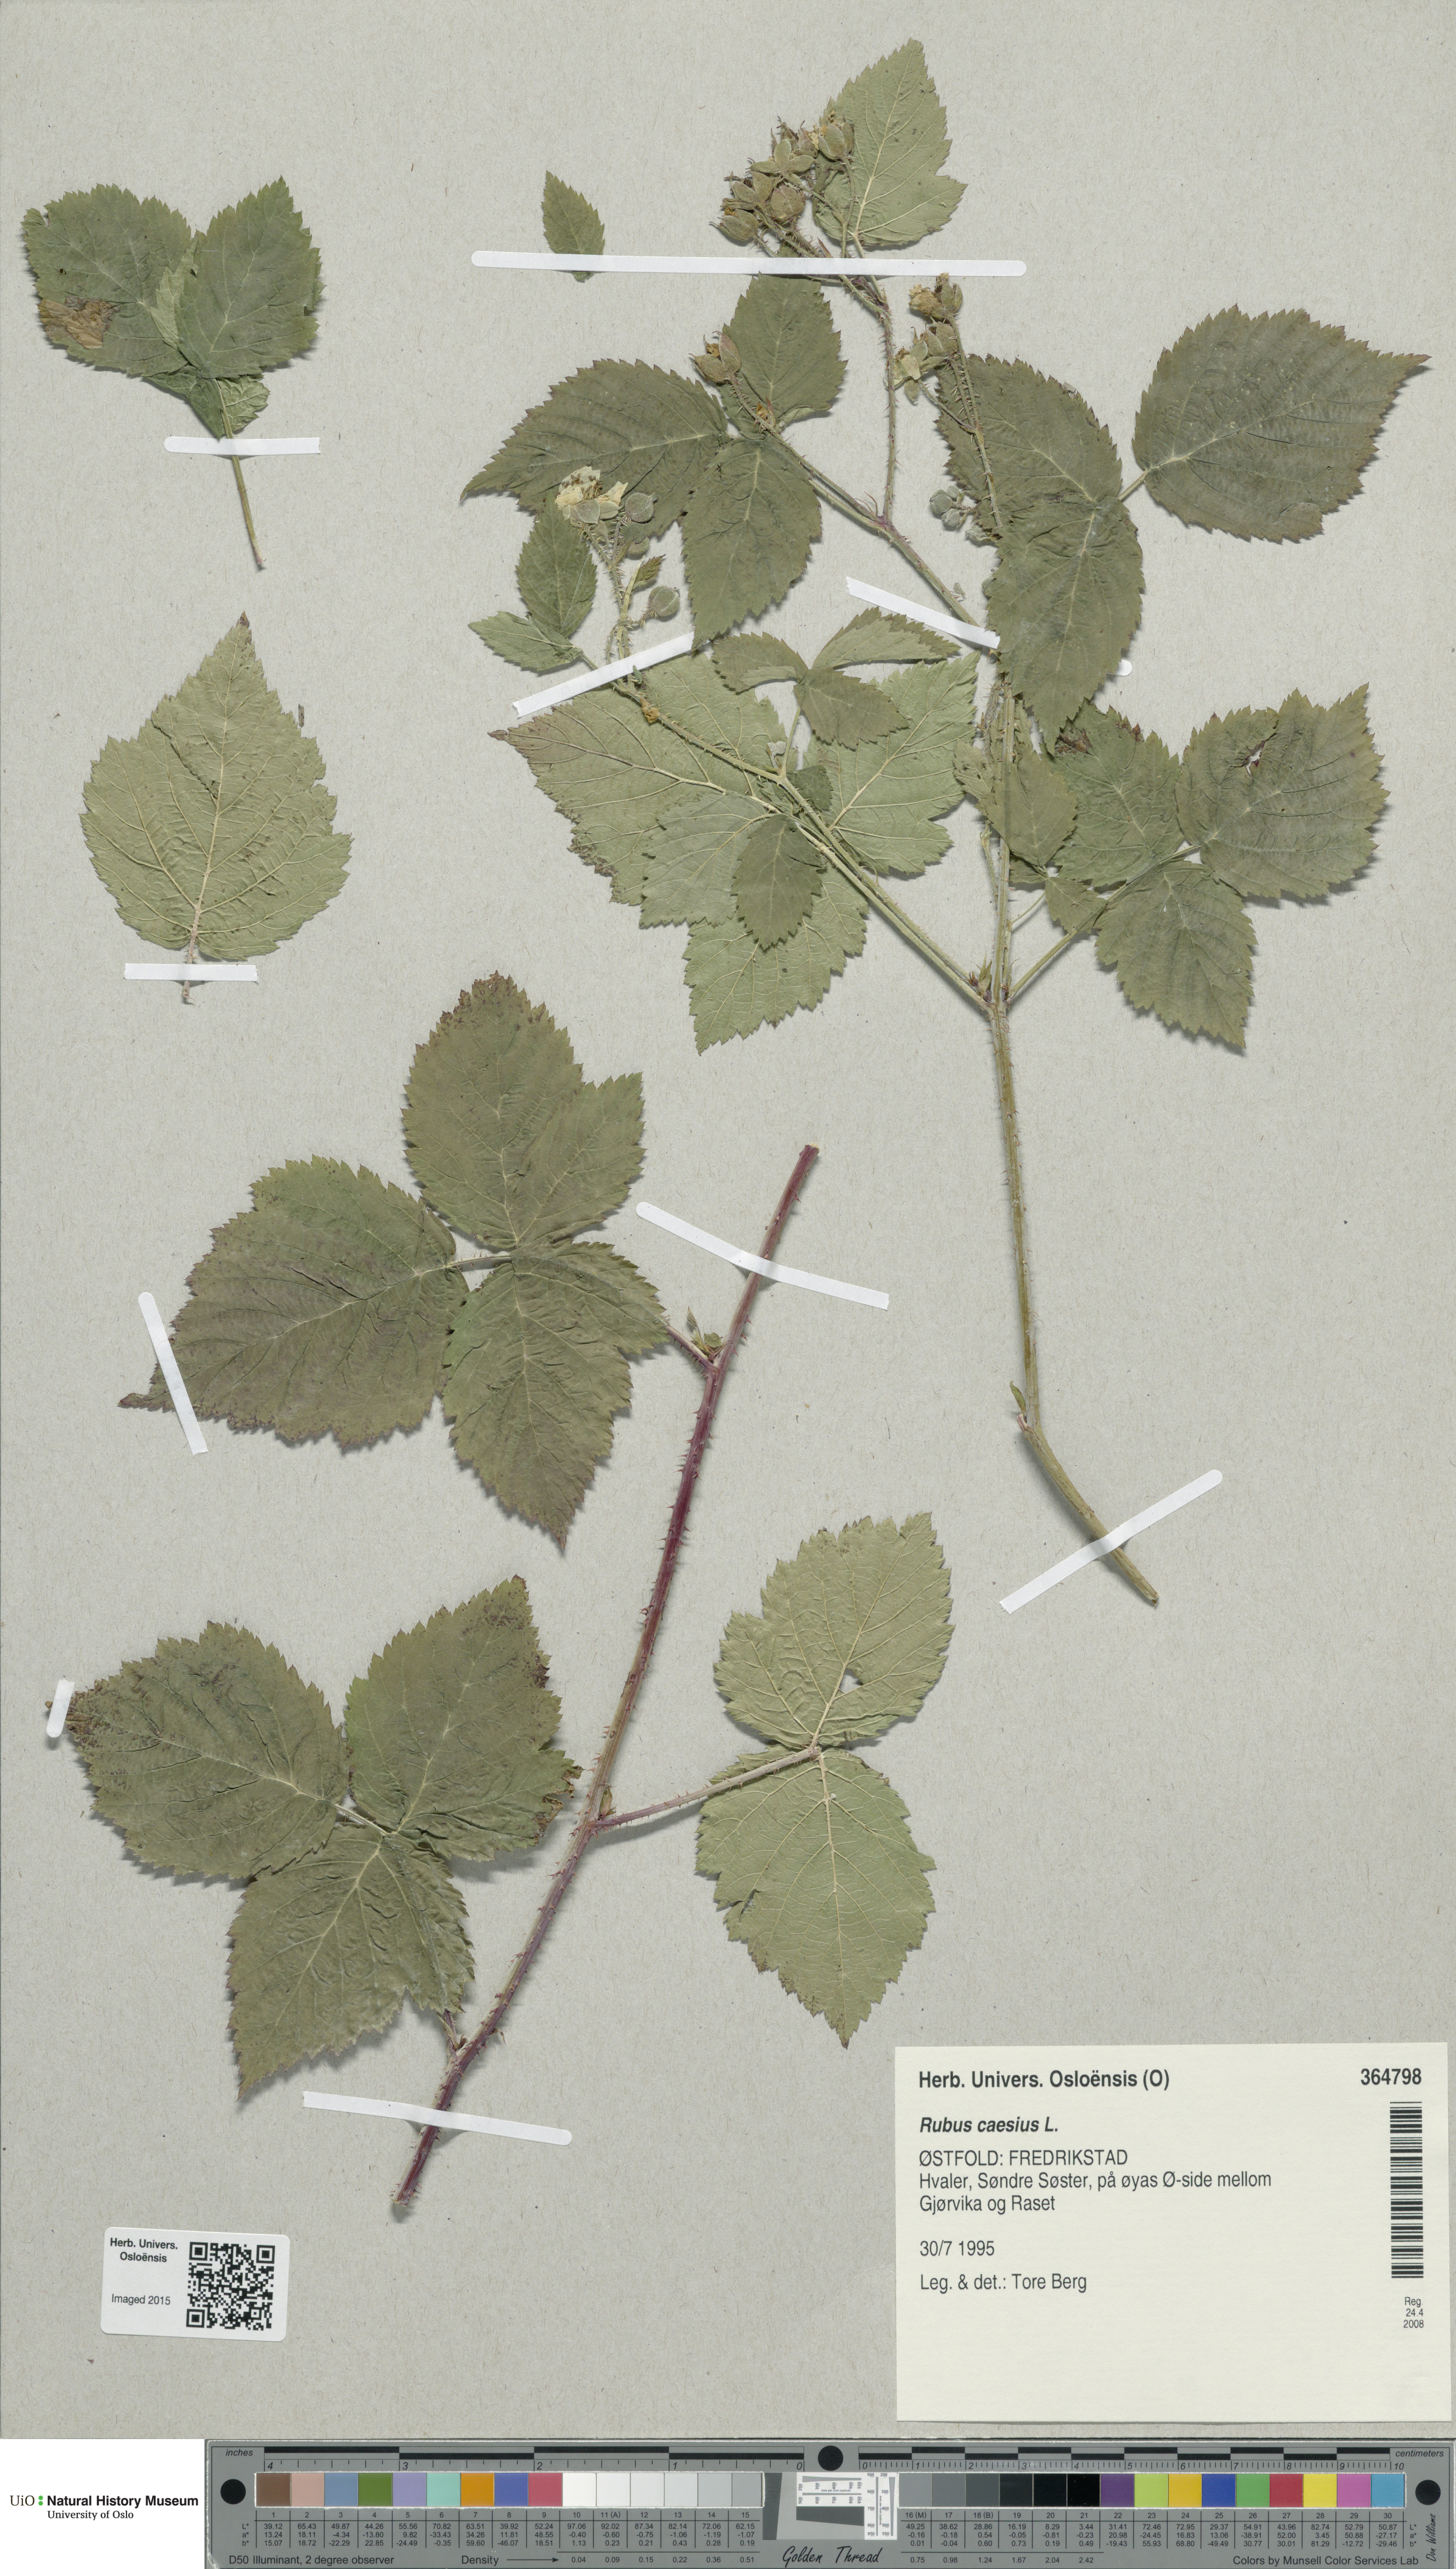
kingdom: Plantae
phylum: Tracheophyta
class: Magnoliopsida
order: Rosales
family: Rosaceae
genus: Rubus
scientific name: Rubus caesius
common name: Dewberry
